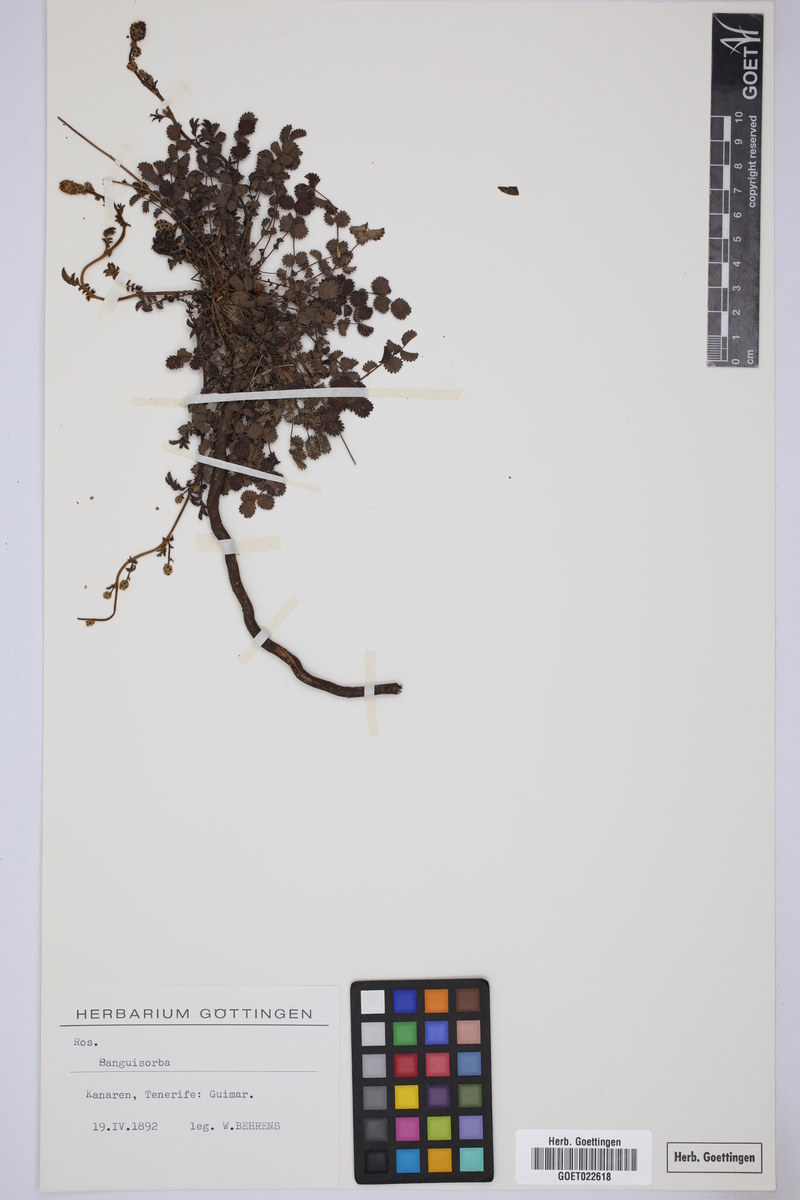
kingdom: Plantae
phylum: Tracheophyta
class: Magnoliopsida
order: Rosales
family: Rosaceae
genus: Sanguisorba
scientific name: Sanguisorba
